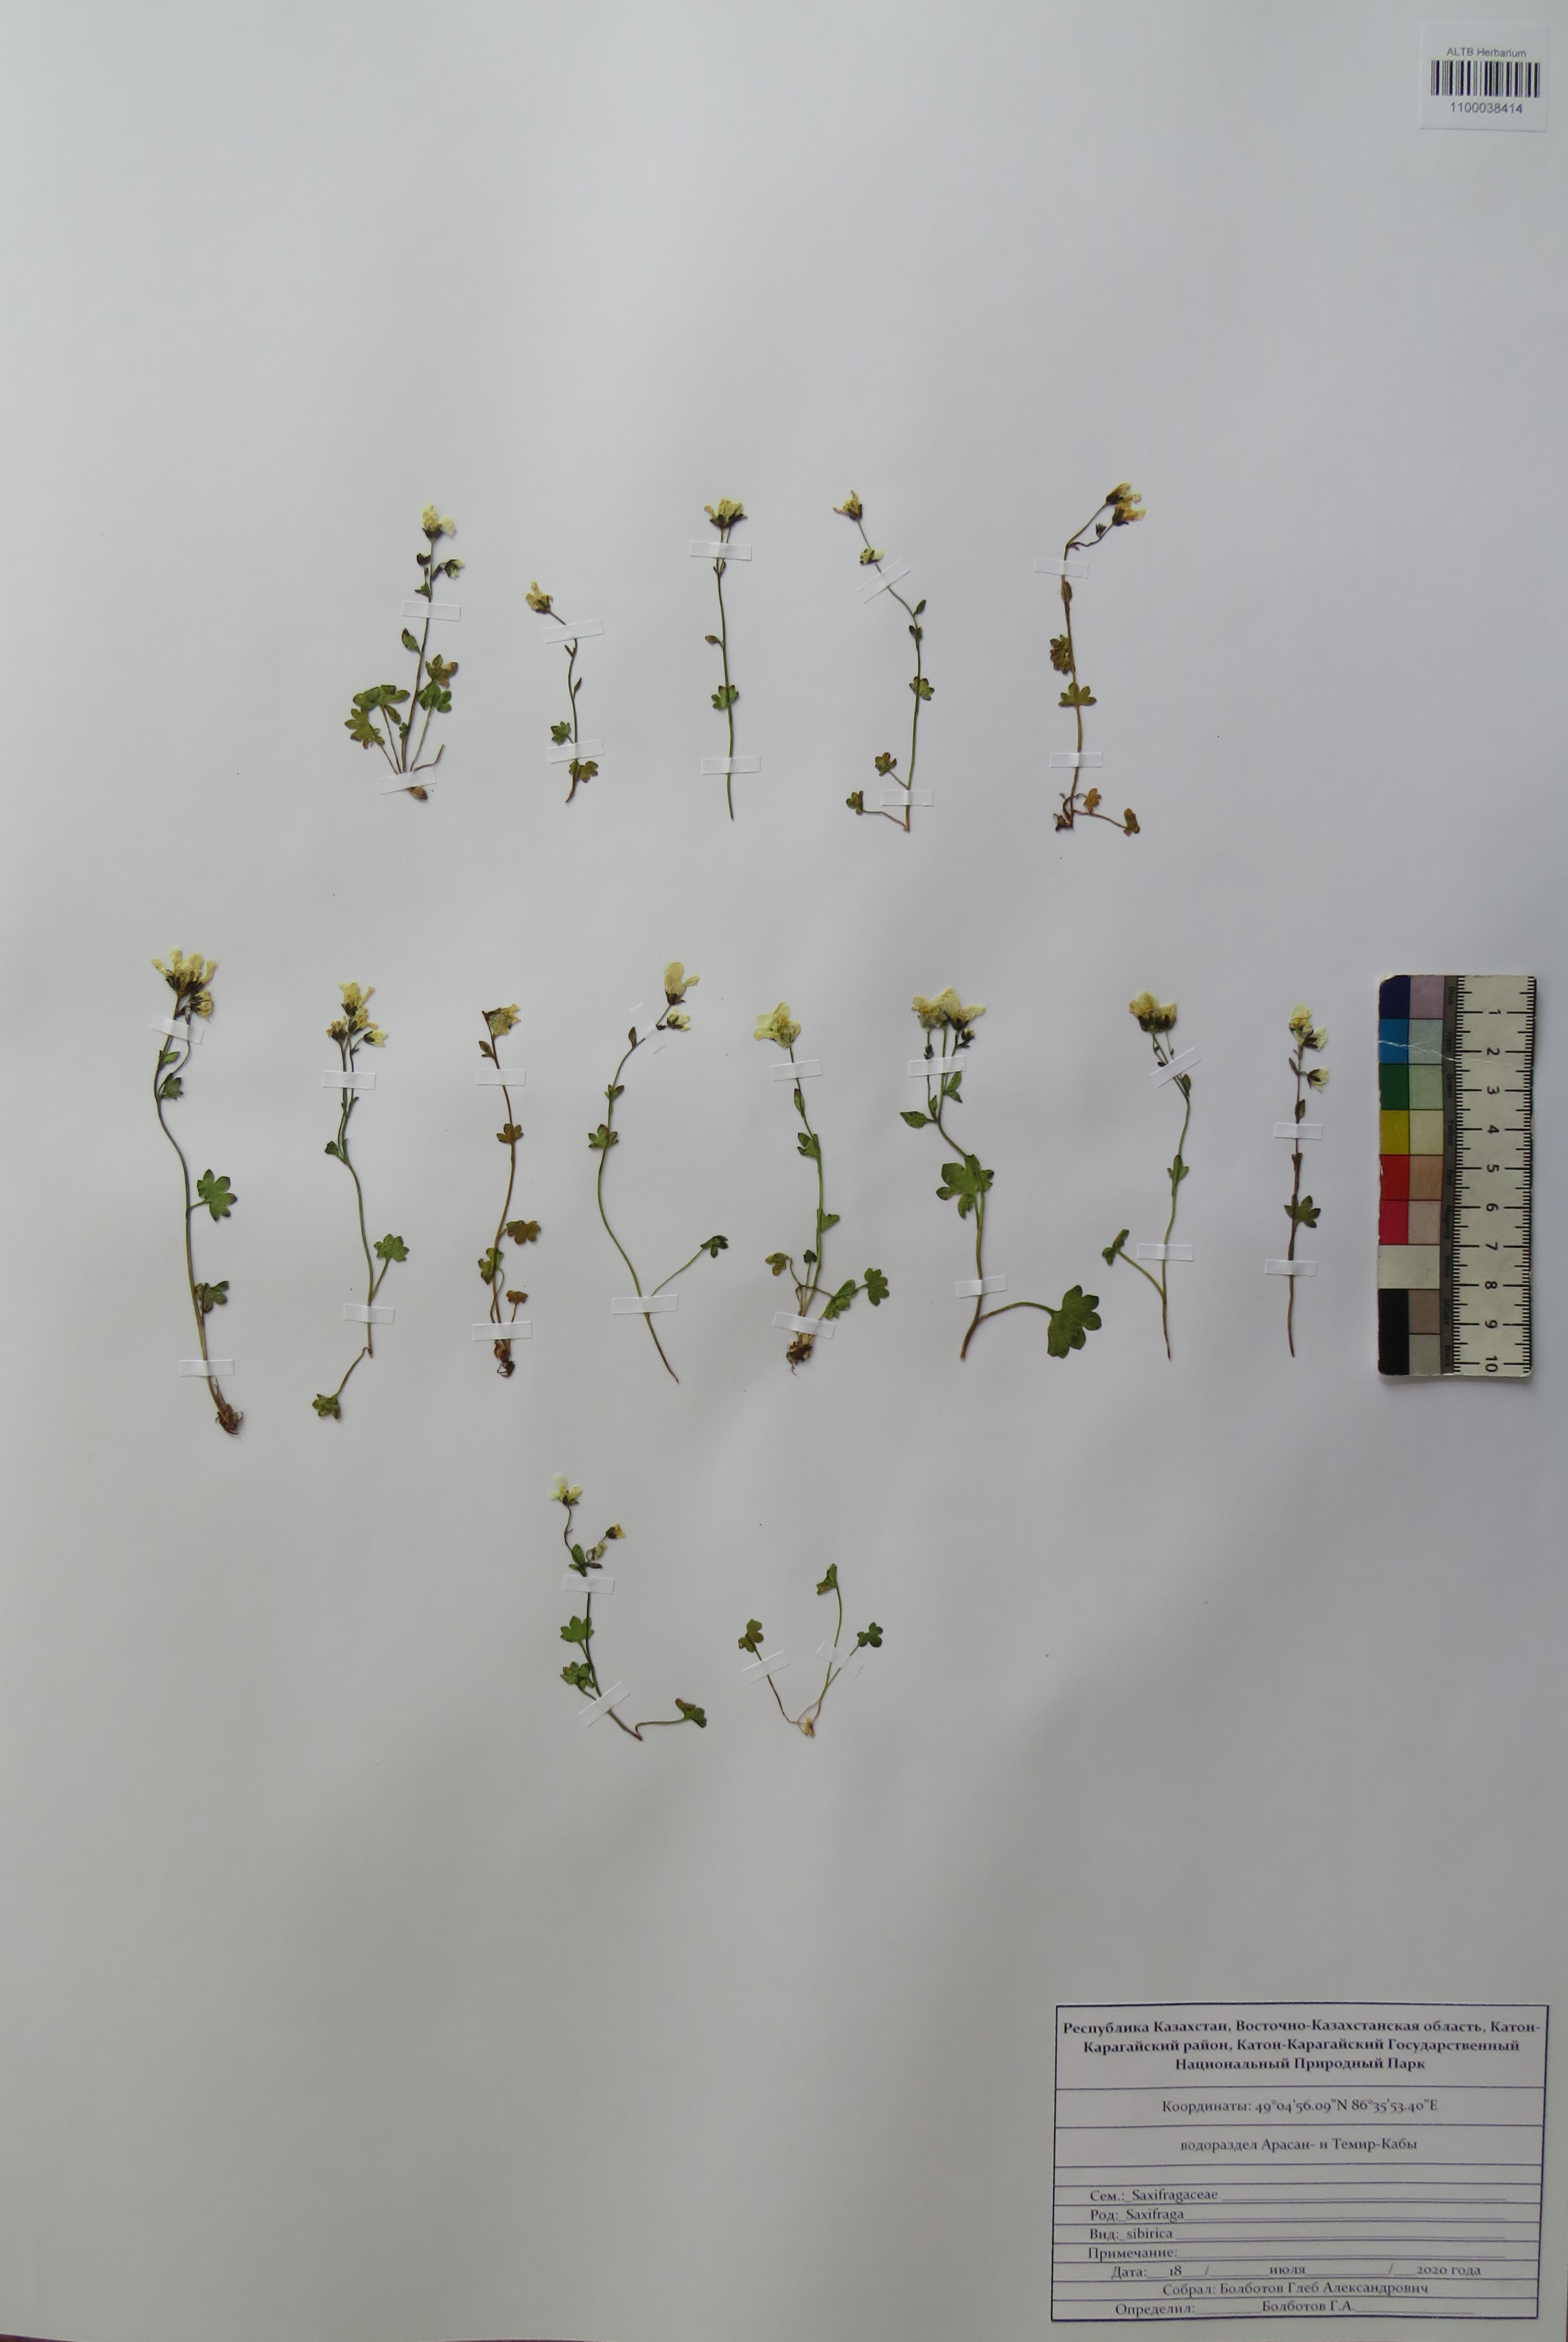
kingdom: Plantae
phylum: Tracheophyta
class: Magnoliopsida
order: Saxifragales
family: Saxifragaceae
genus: Saxifraga
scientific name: Saxifraga sibirica
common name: Siberian saxifrage
